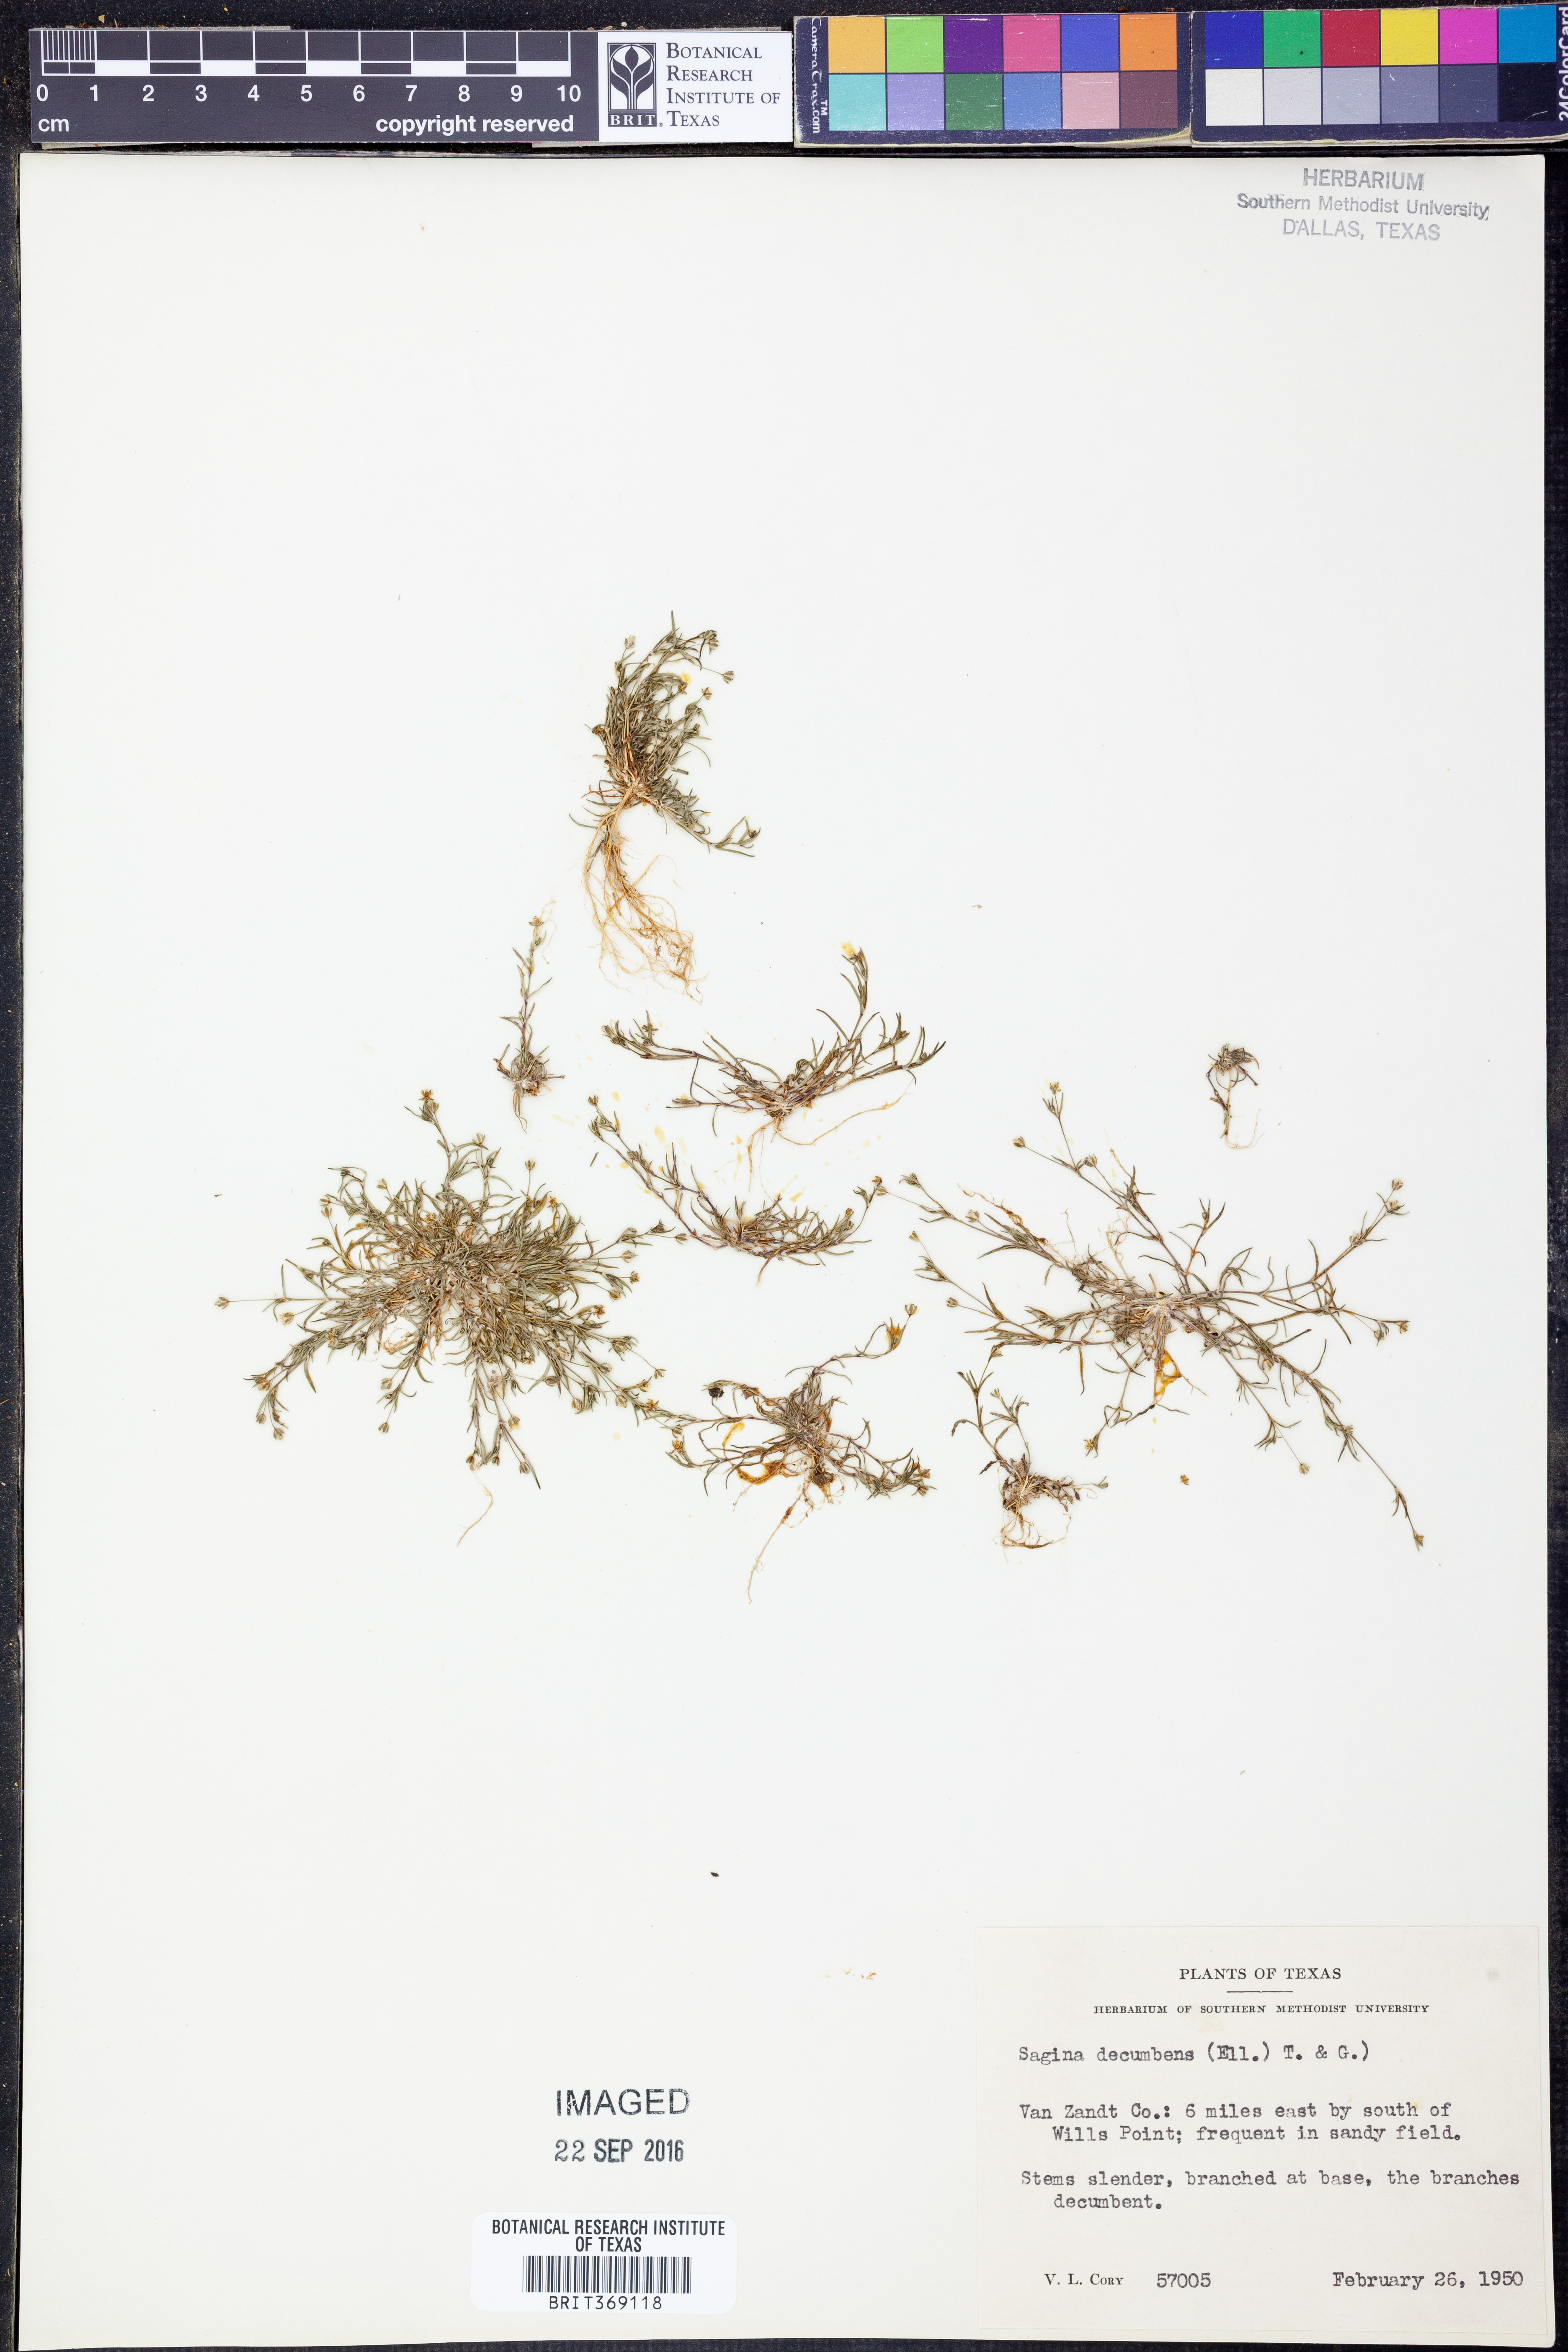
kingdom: Plantae
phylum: Tracheophyta
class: Magnoliopsida
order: Caryophyllales
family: Caryophyllaceae
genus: Sagina
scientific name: Sagina decumbens
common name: Decumbent pearlwort
